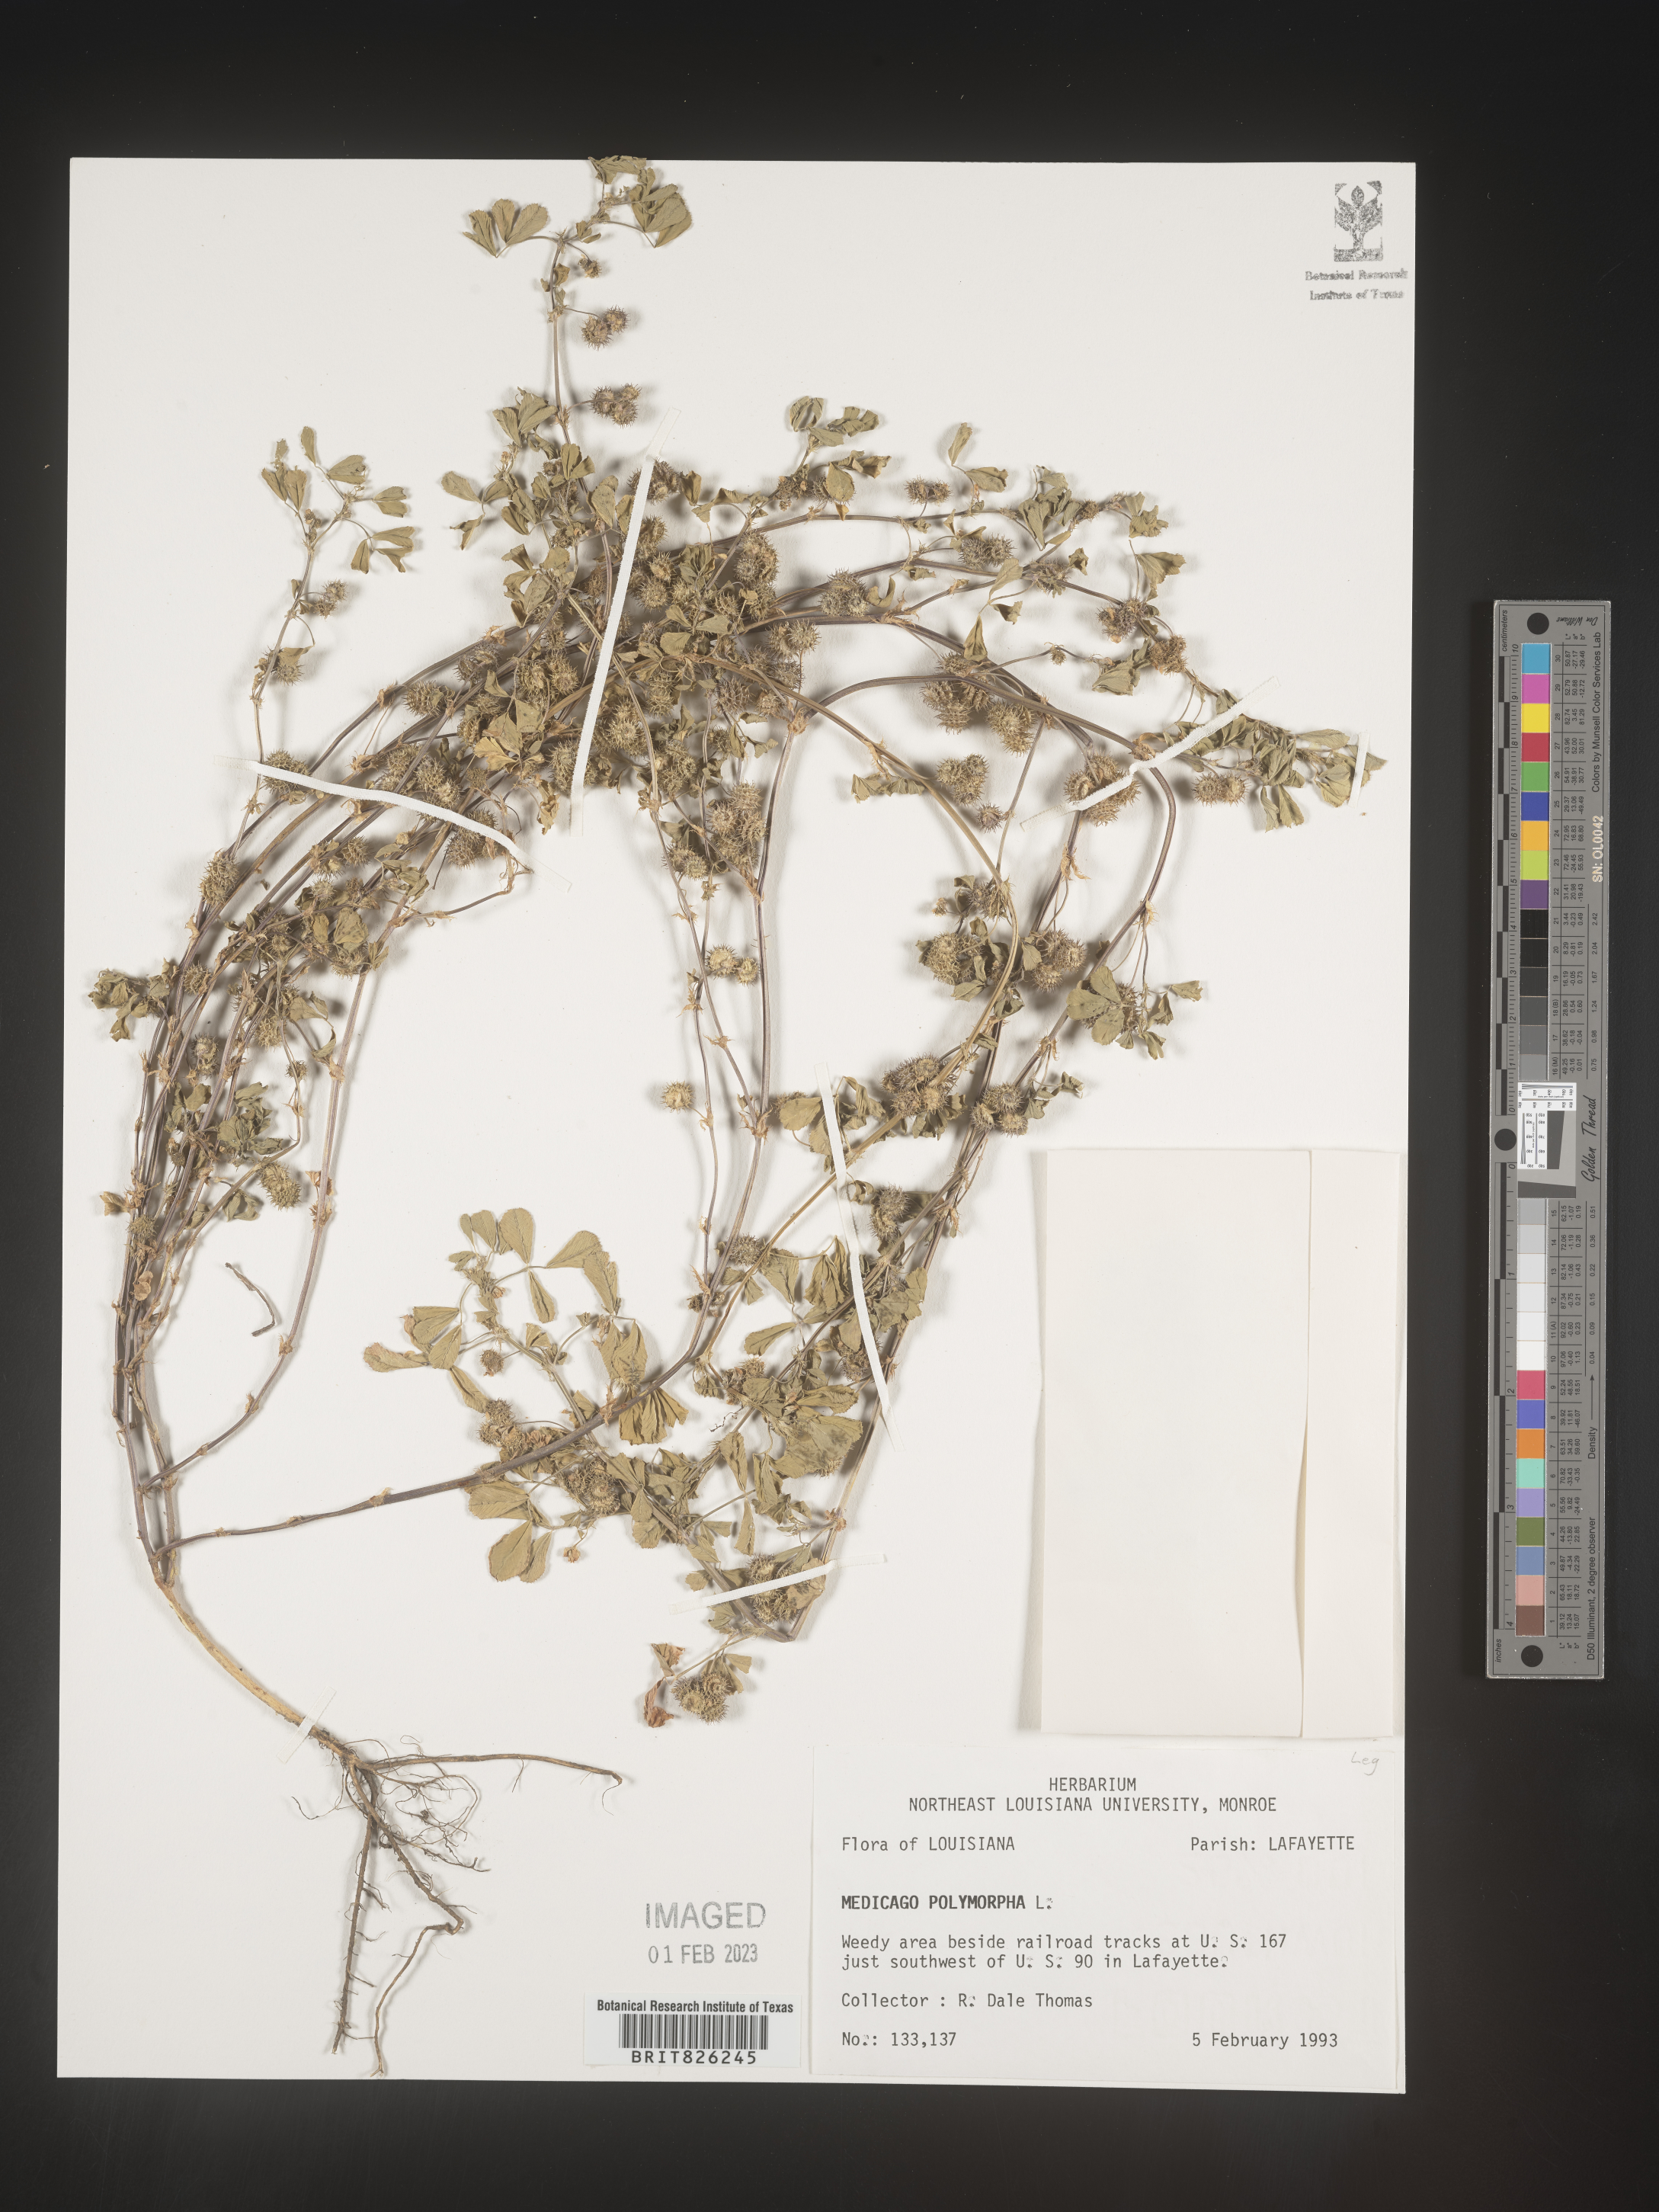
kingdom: Plantae
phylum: Tracheophyta
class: Magnoliopsida
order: Fabales
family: Fabaceae
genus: Medicago
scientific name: Medicago polymorpha
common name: Burclover
